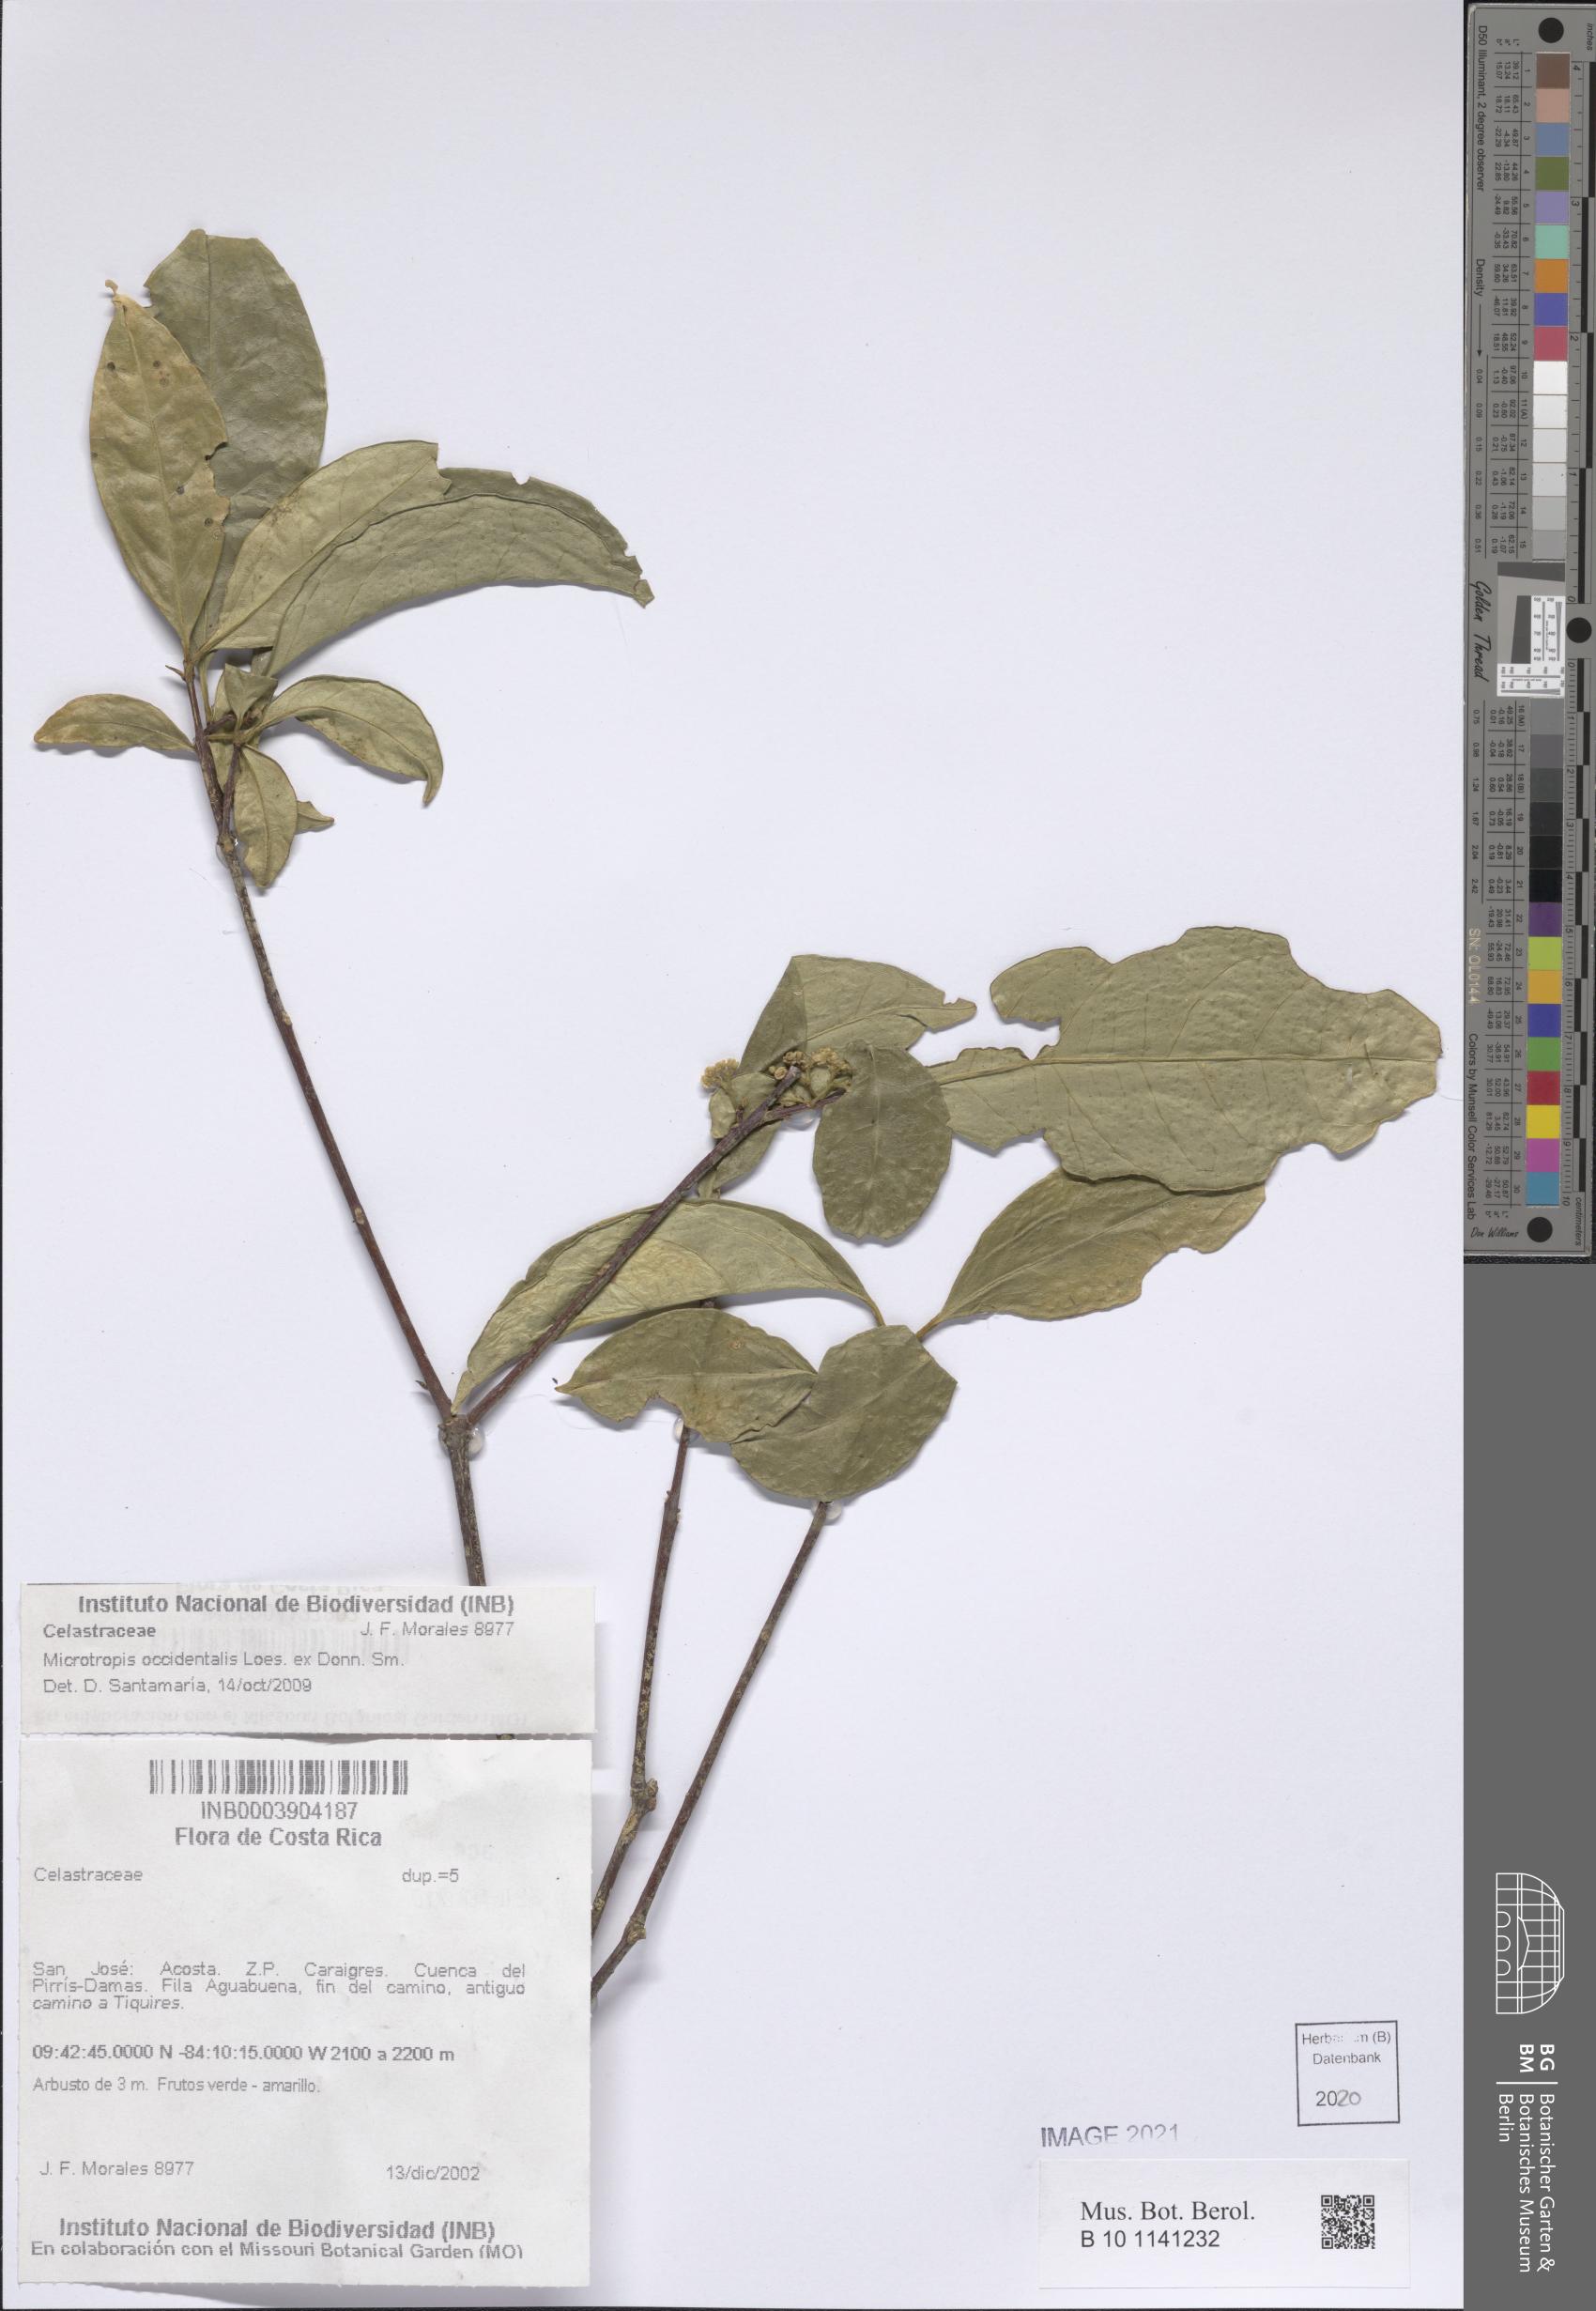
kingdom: Plantae
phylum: Tracheophyta
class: Magnoliopsida
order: Celastrales
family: Celastraceae
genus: Quetzalia
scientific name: Quetzalia occidentalis
